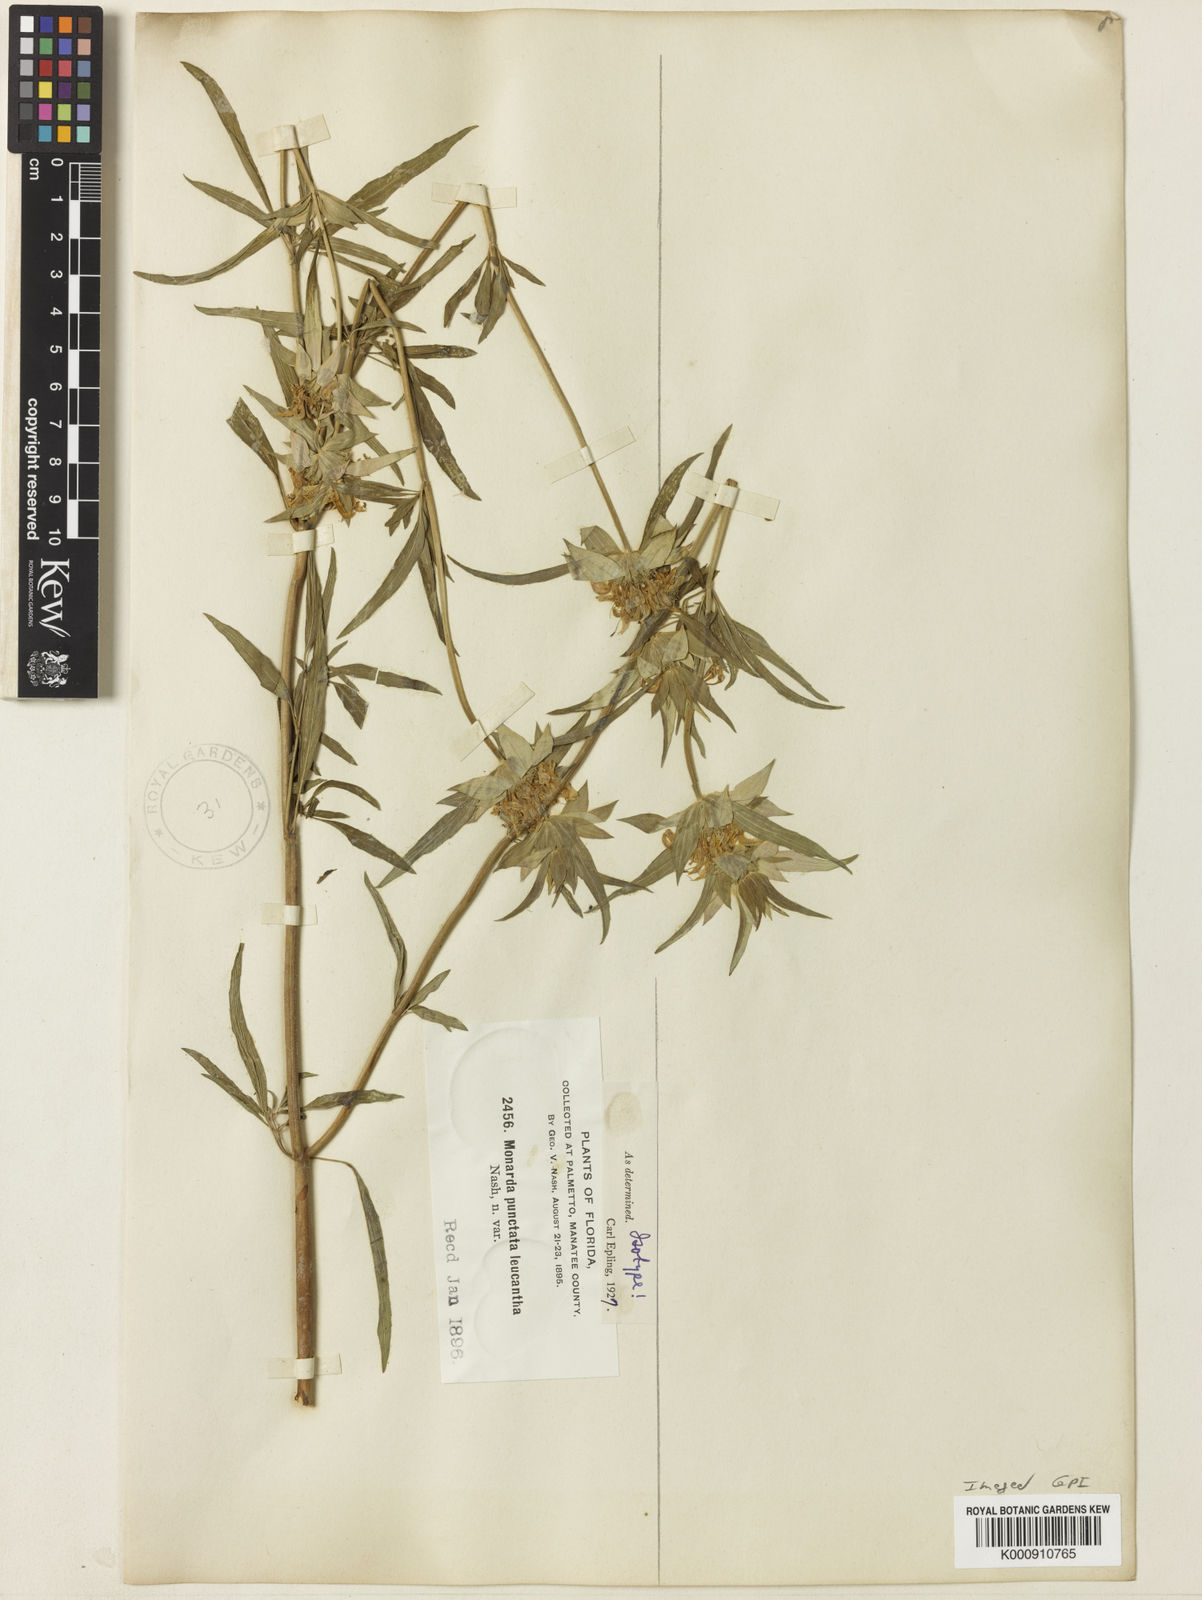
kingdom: Plantae
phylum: Tracheophyta
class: Magnoliopsida
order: Lamiales
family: Lamiaceae
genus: Monarda
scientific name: Monarda punctata
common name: Dotted monarda
